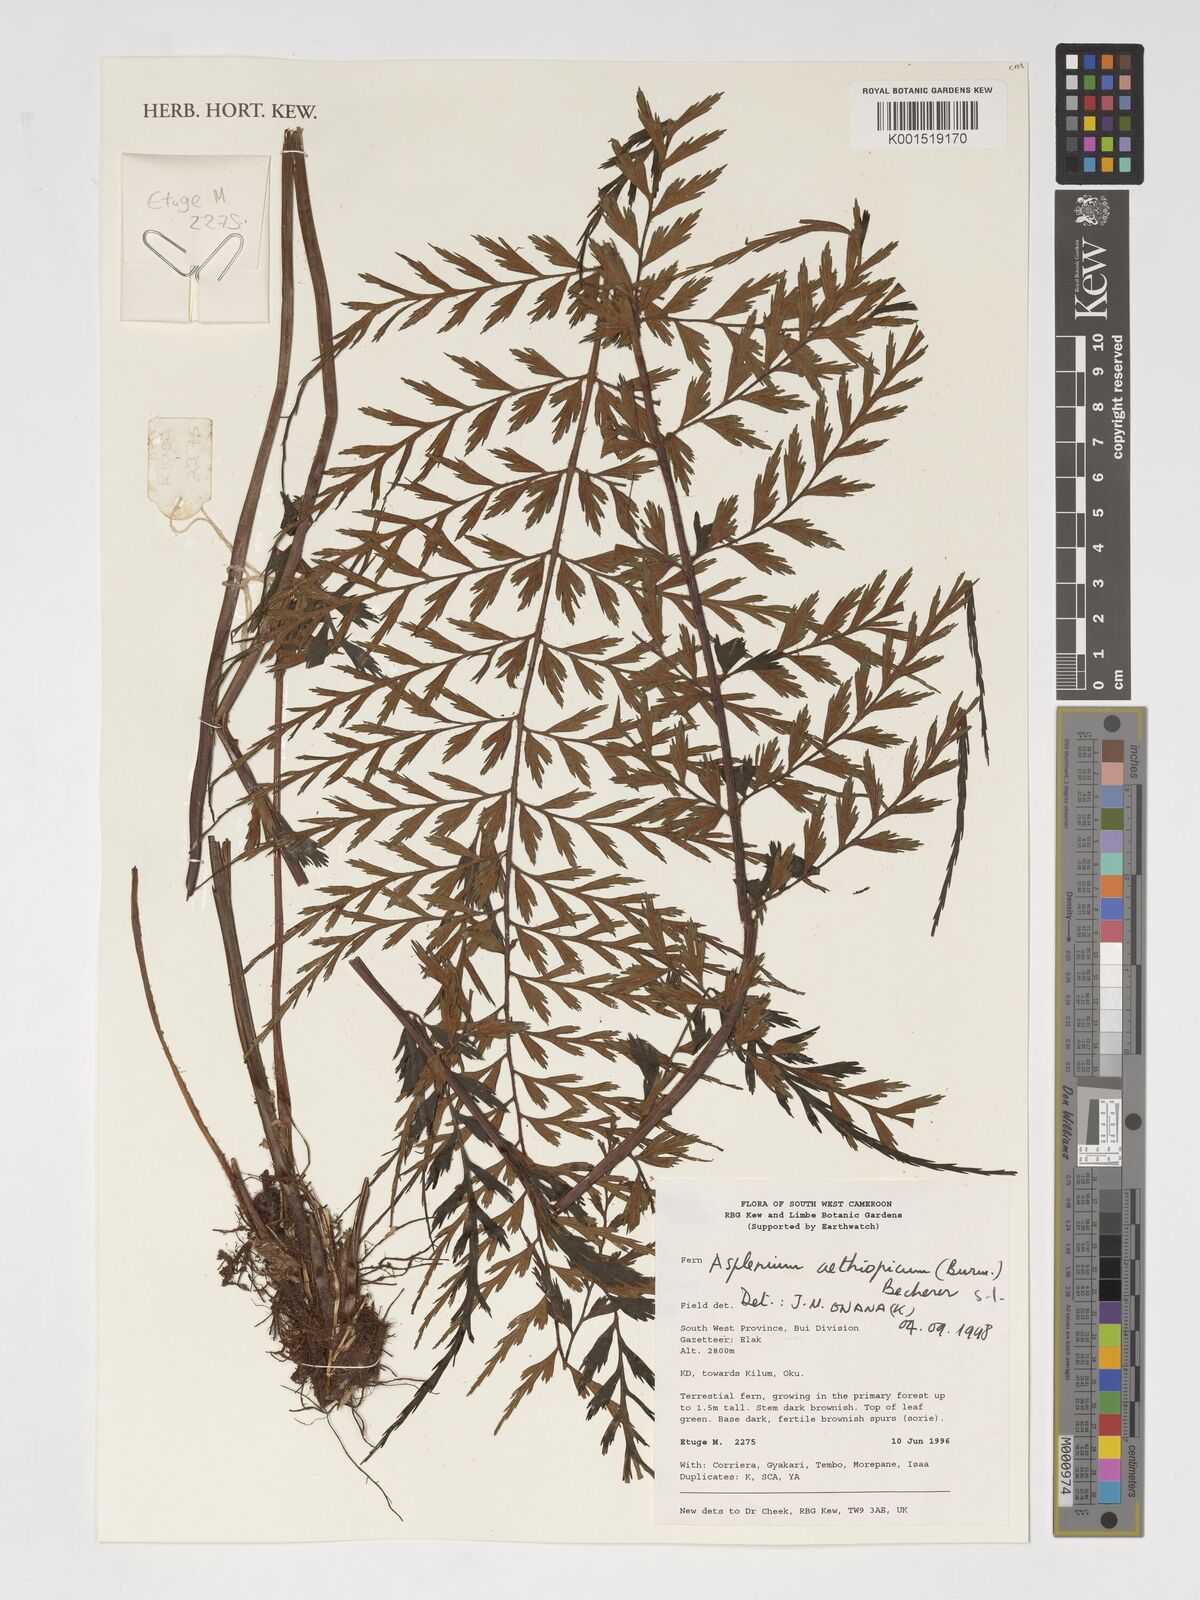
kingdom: Plantae
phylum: Tracheophyta
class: Polypodiopsida
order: Polypodiales
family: Aspleniaceae
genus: Asplenium
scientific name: Asplenium aethiopicum
